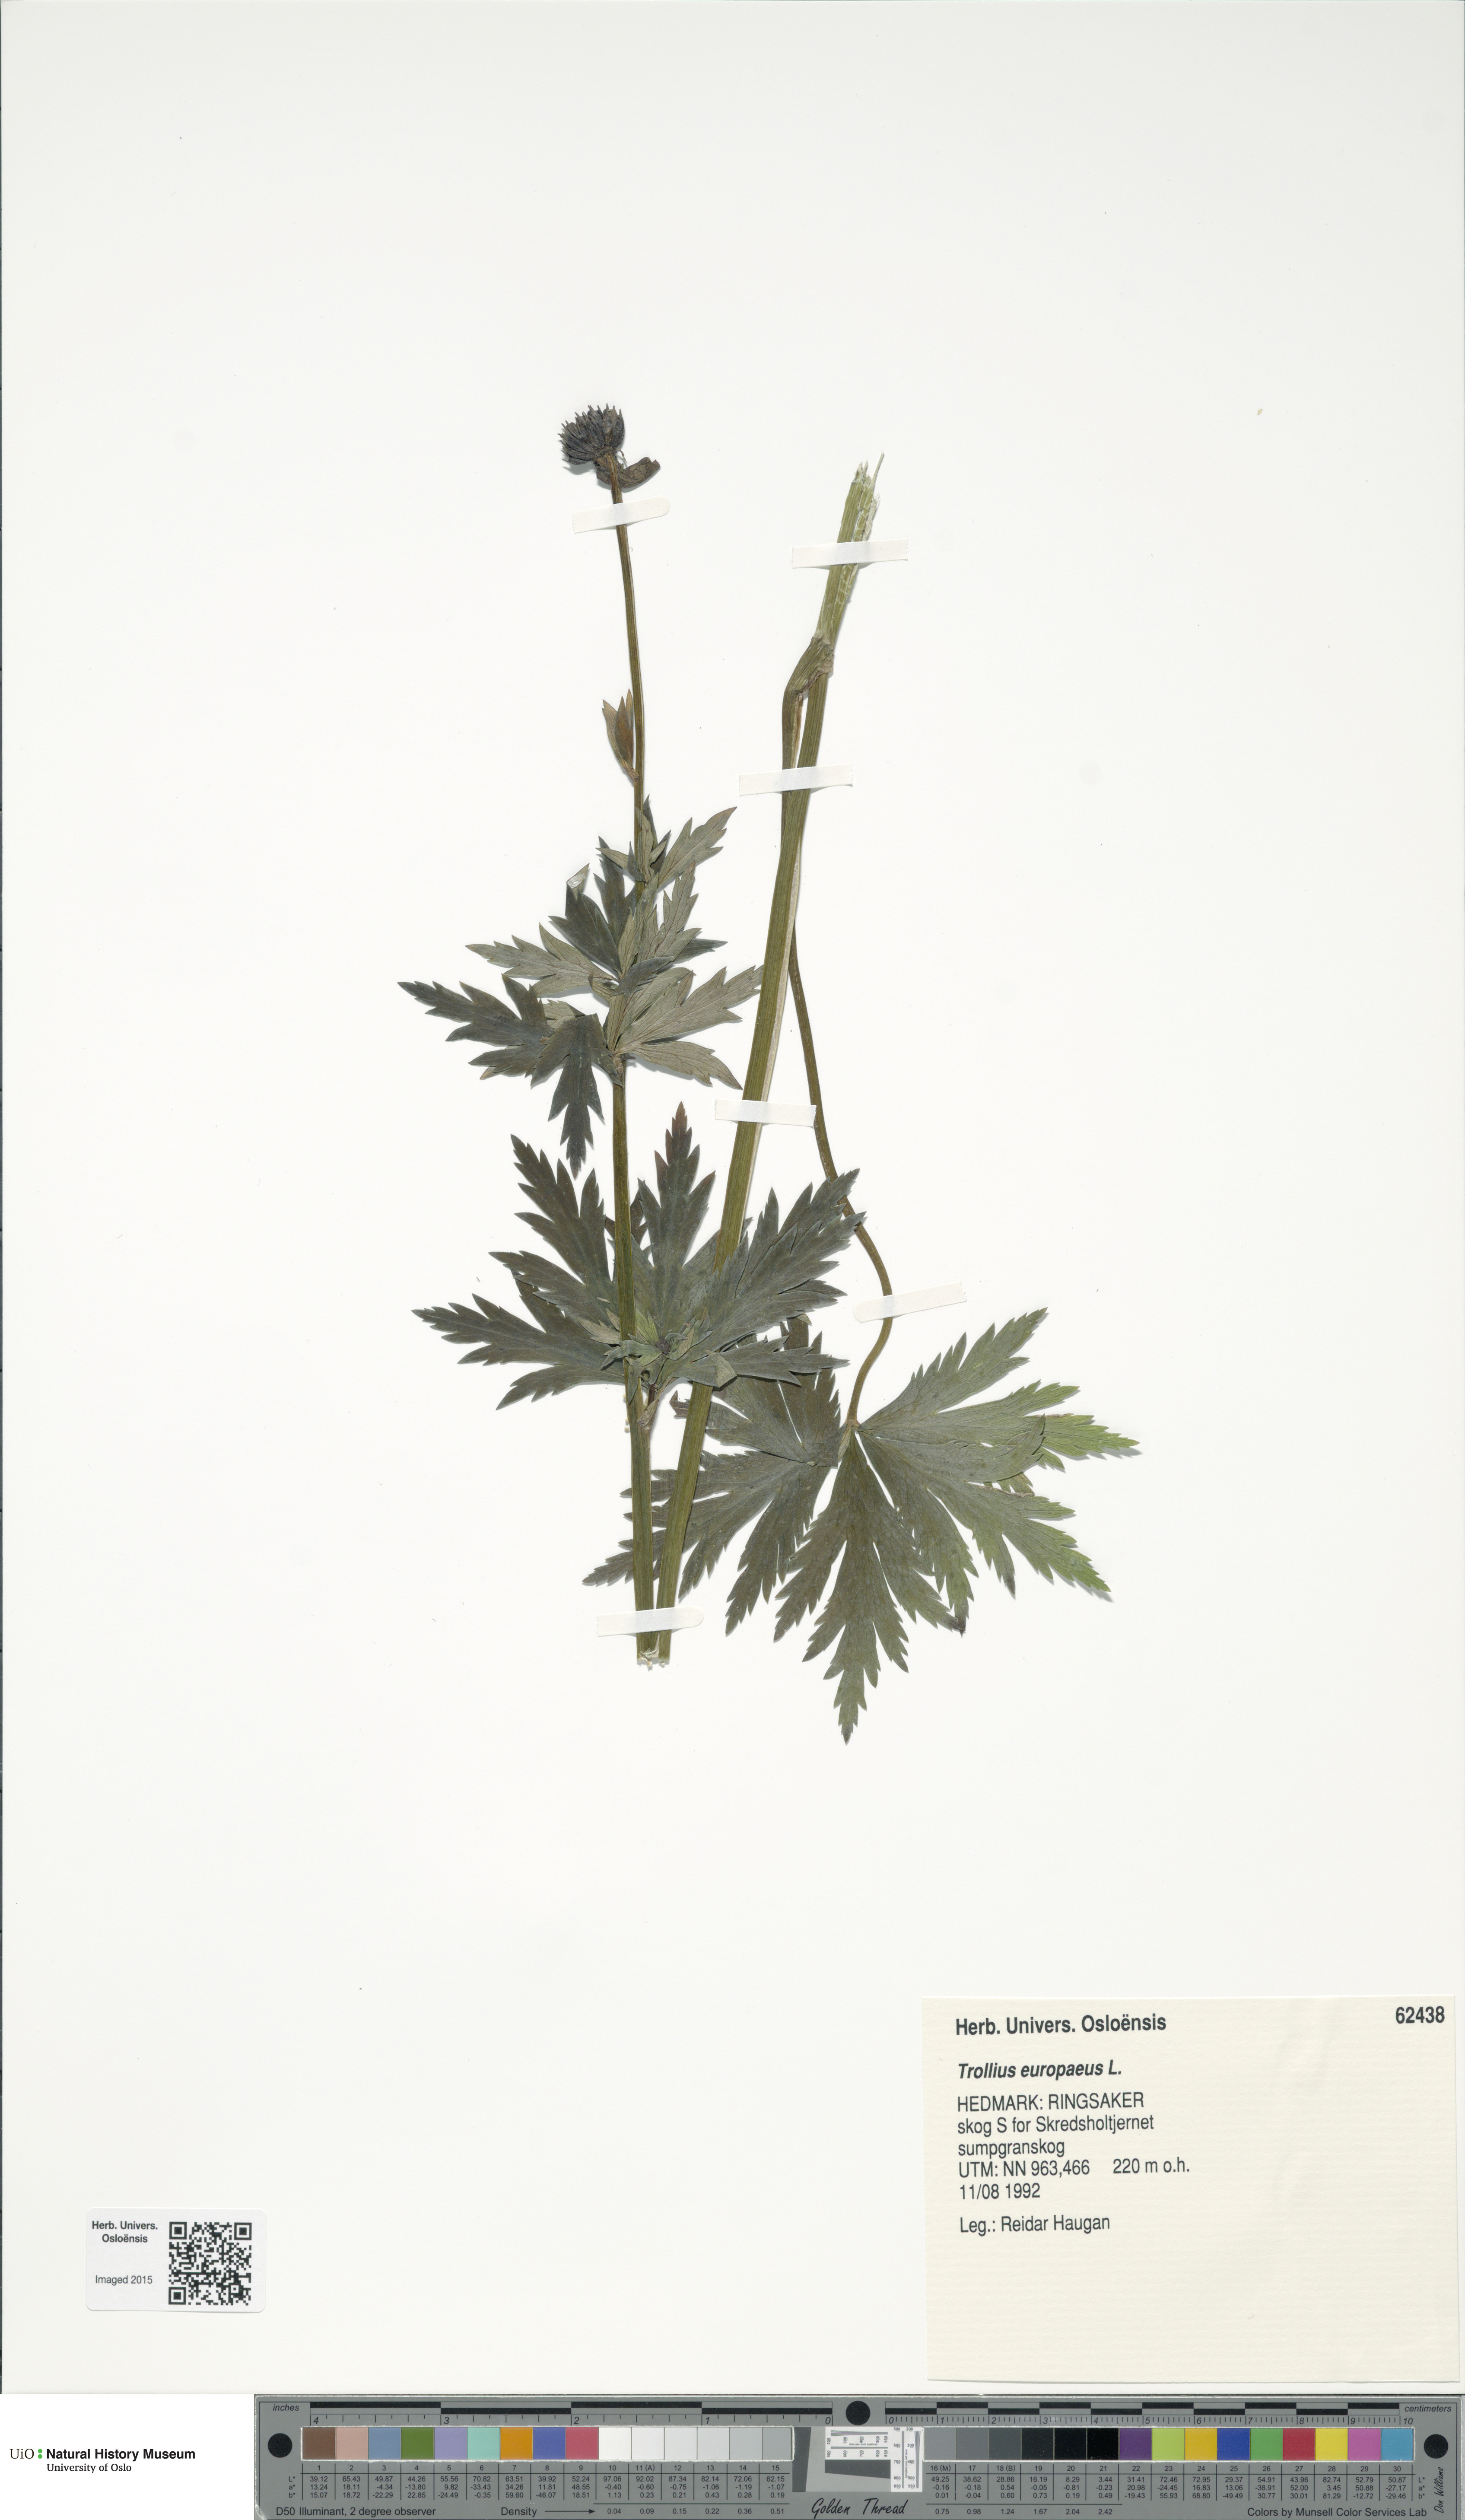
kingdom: Plantae
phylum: Tracheophyta
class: Magnoliopsida
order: Ranunculales
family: Ranunculaceae
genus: Trollius
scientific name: Trollius europaeus
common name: European globeflower
